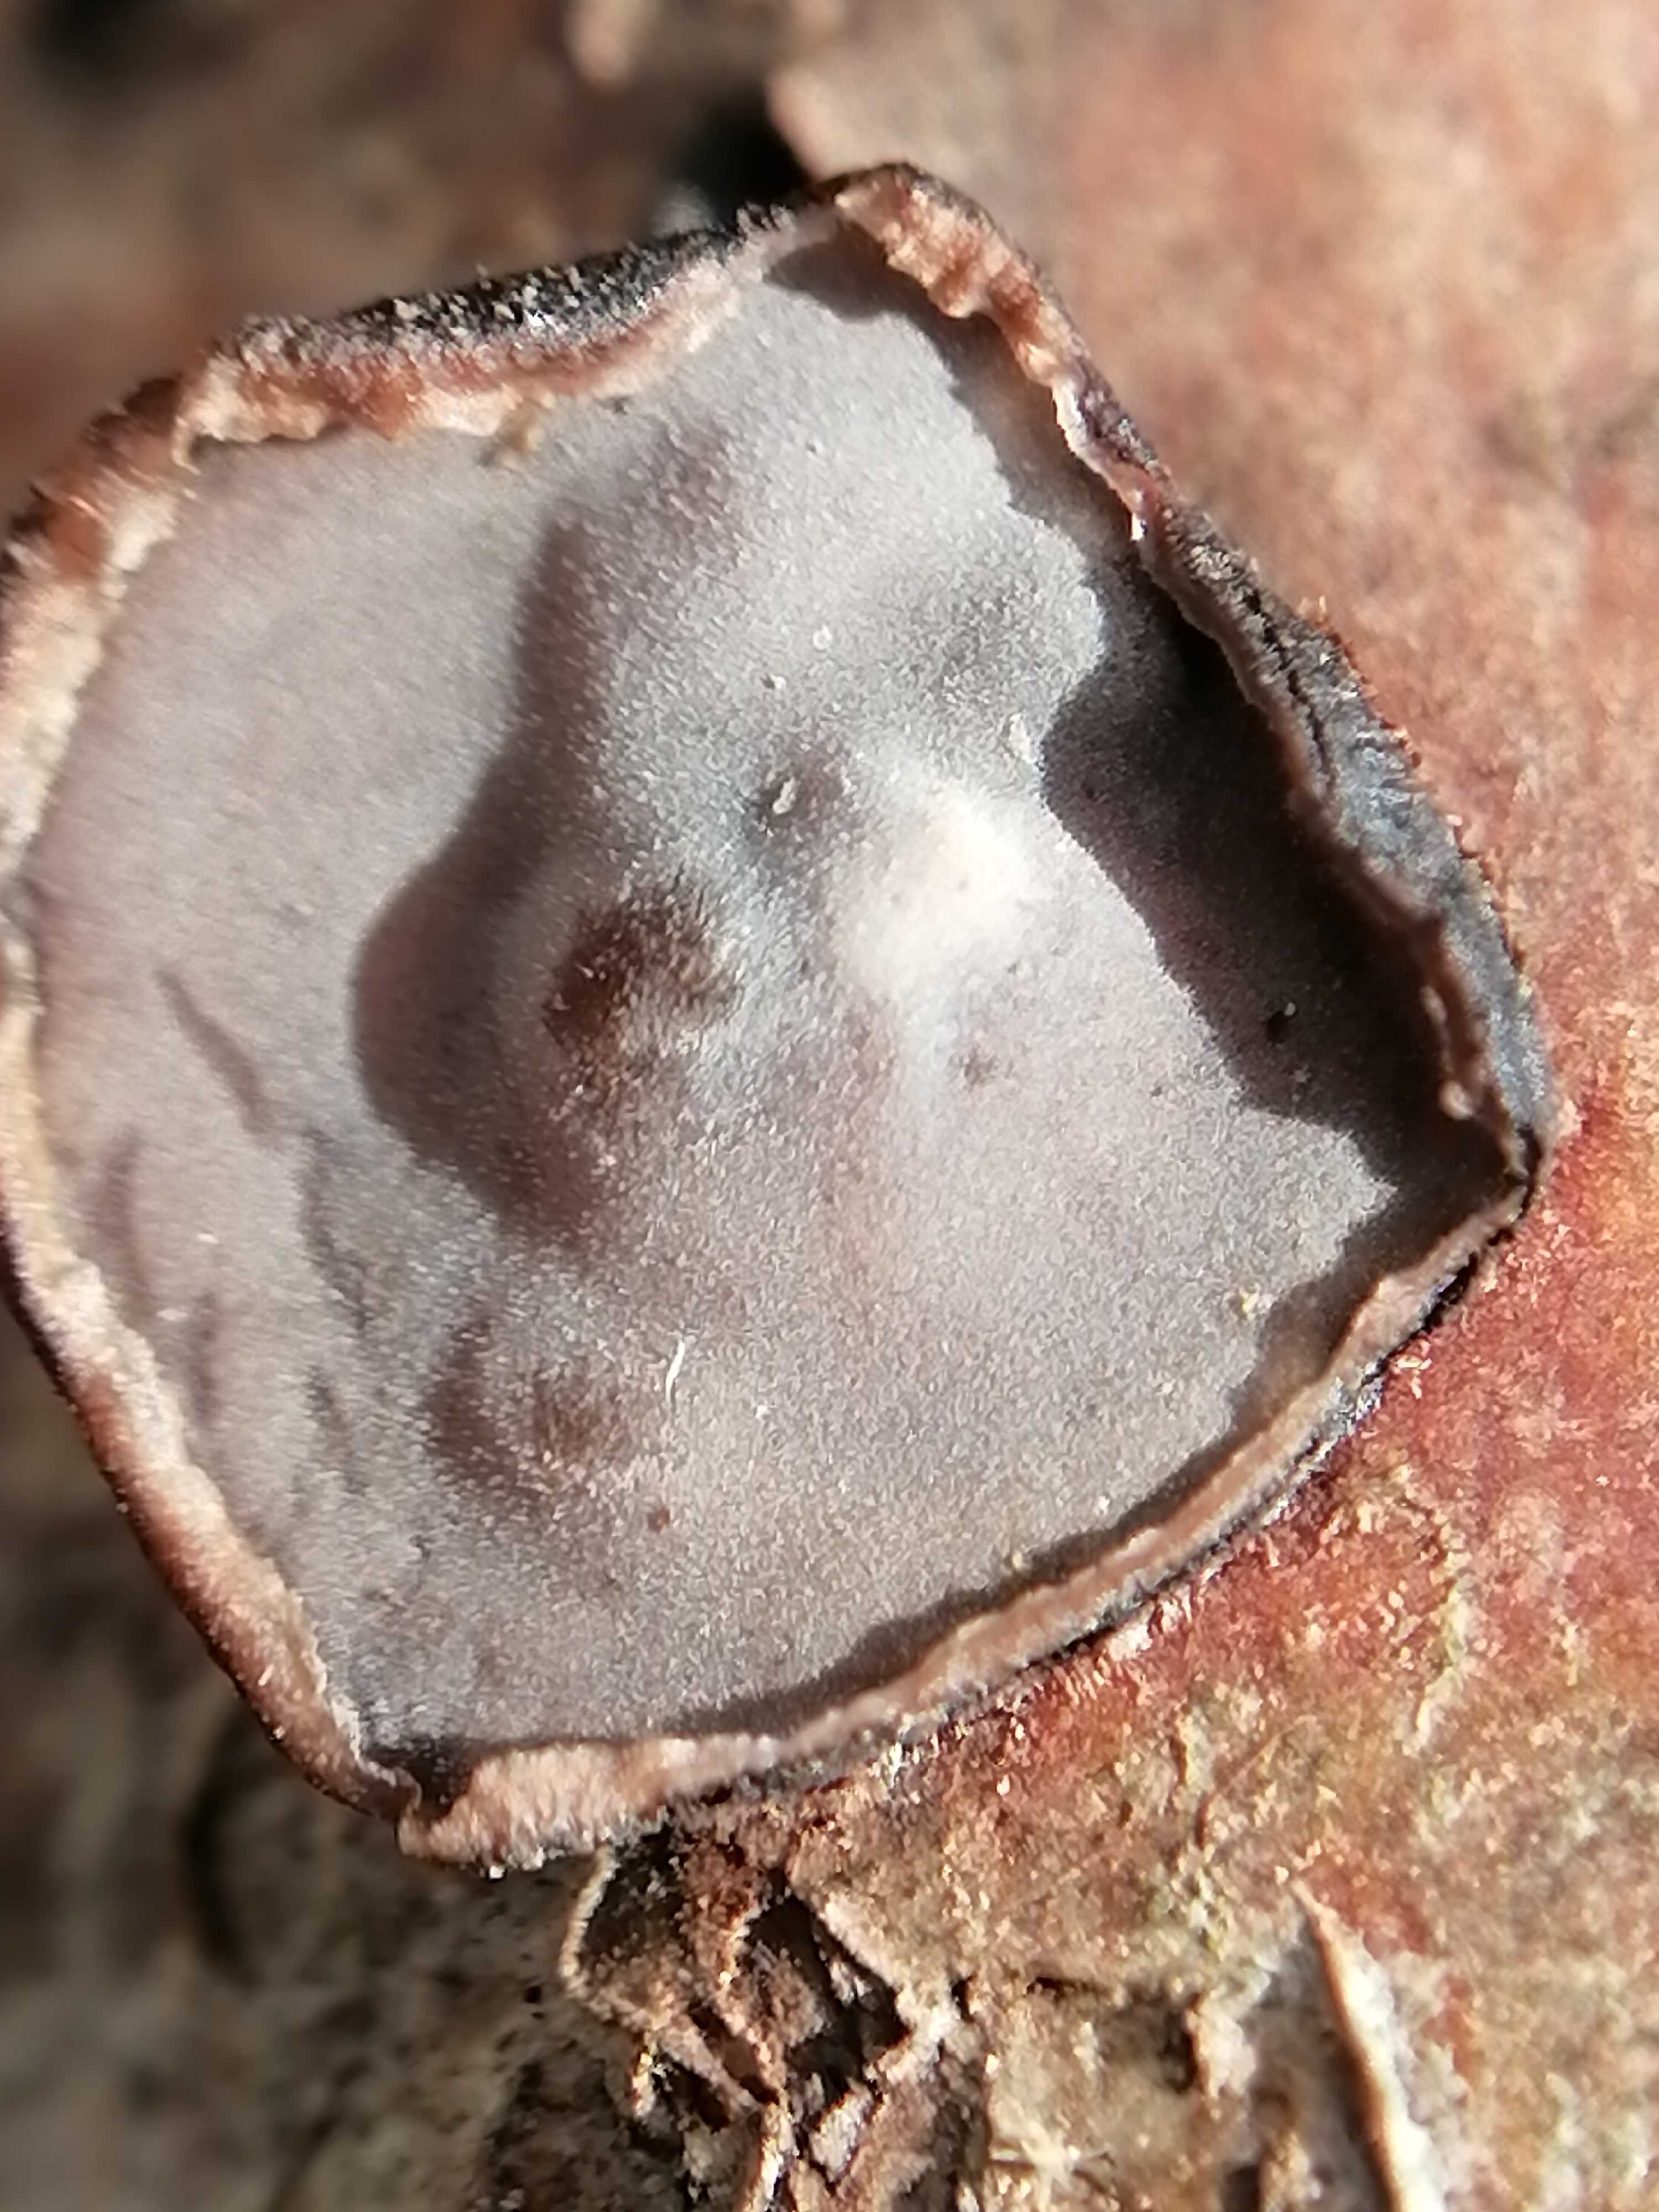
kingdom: Fungi
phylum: Basidiomycota
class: Agaricomycetes
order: Russulales
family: Peniophoraceae
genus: Peniophora
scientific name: Peniophora quercina
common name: ege-voksskind
